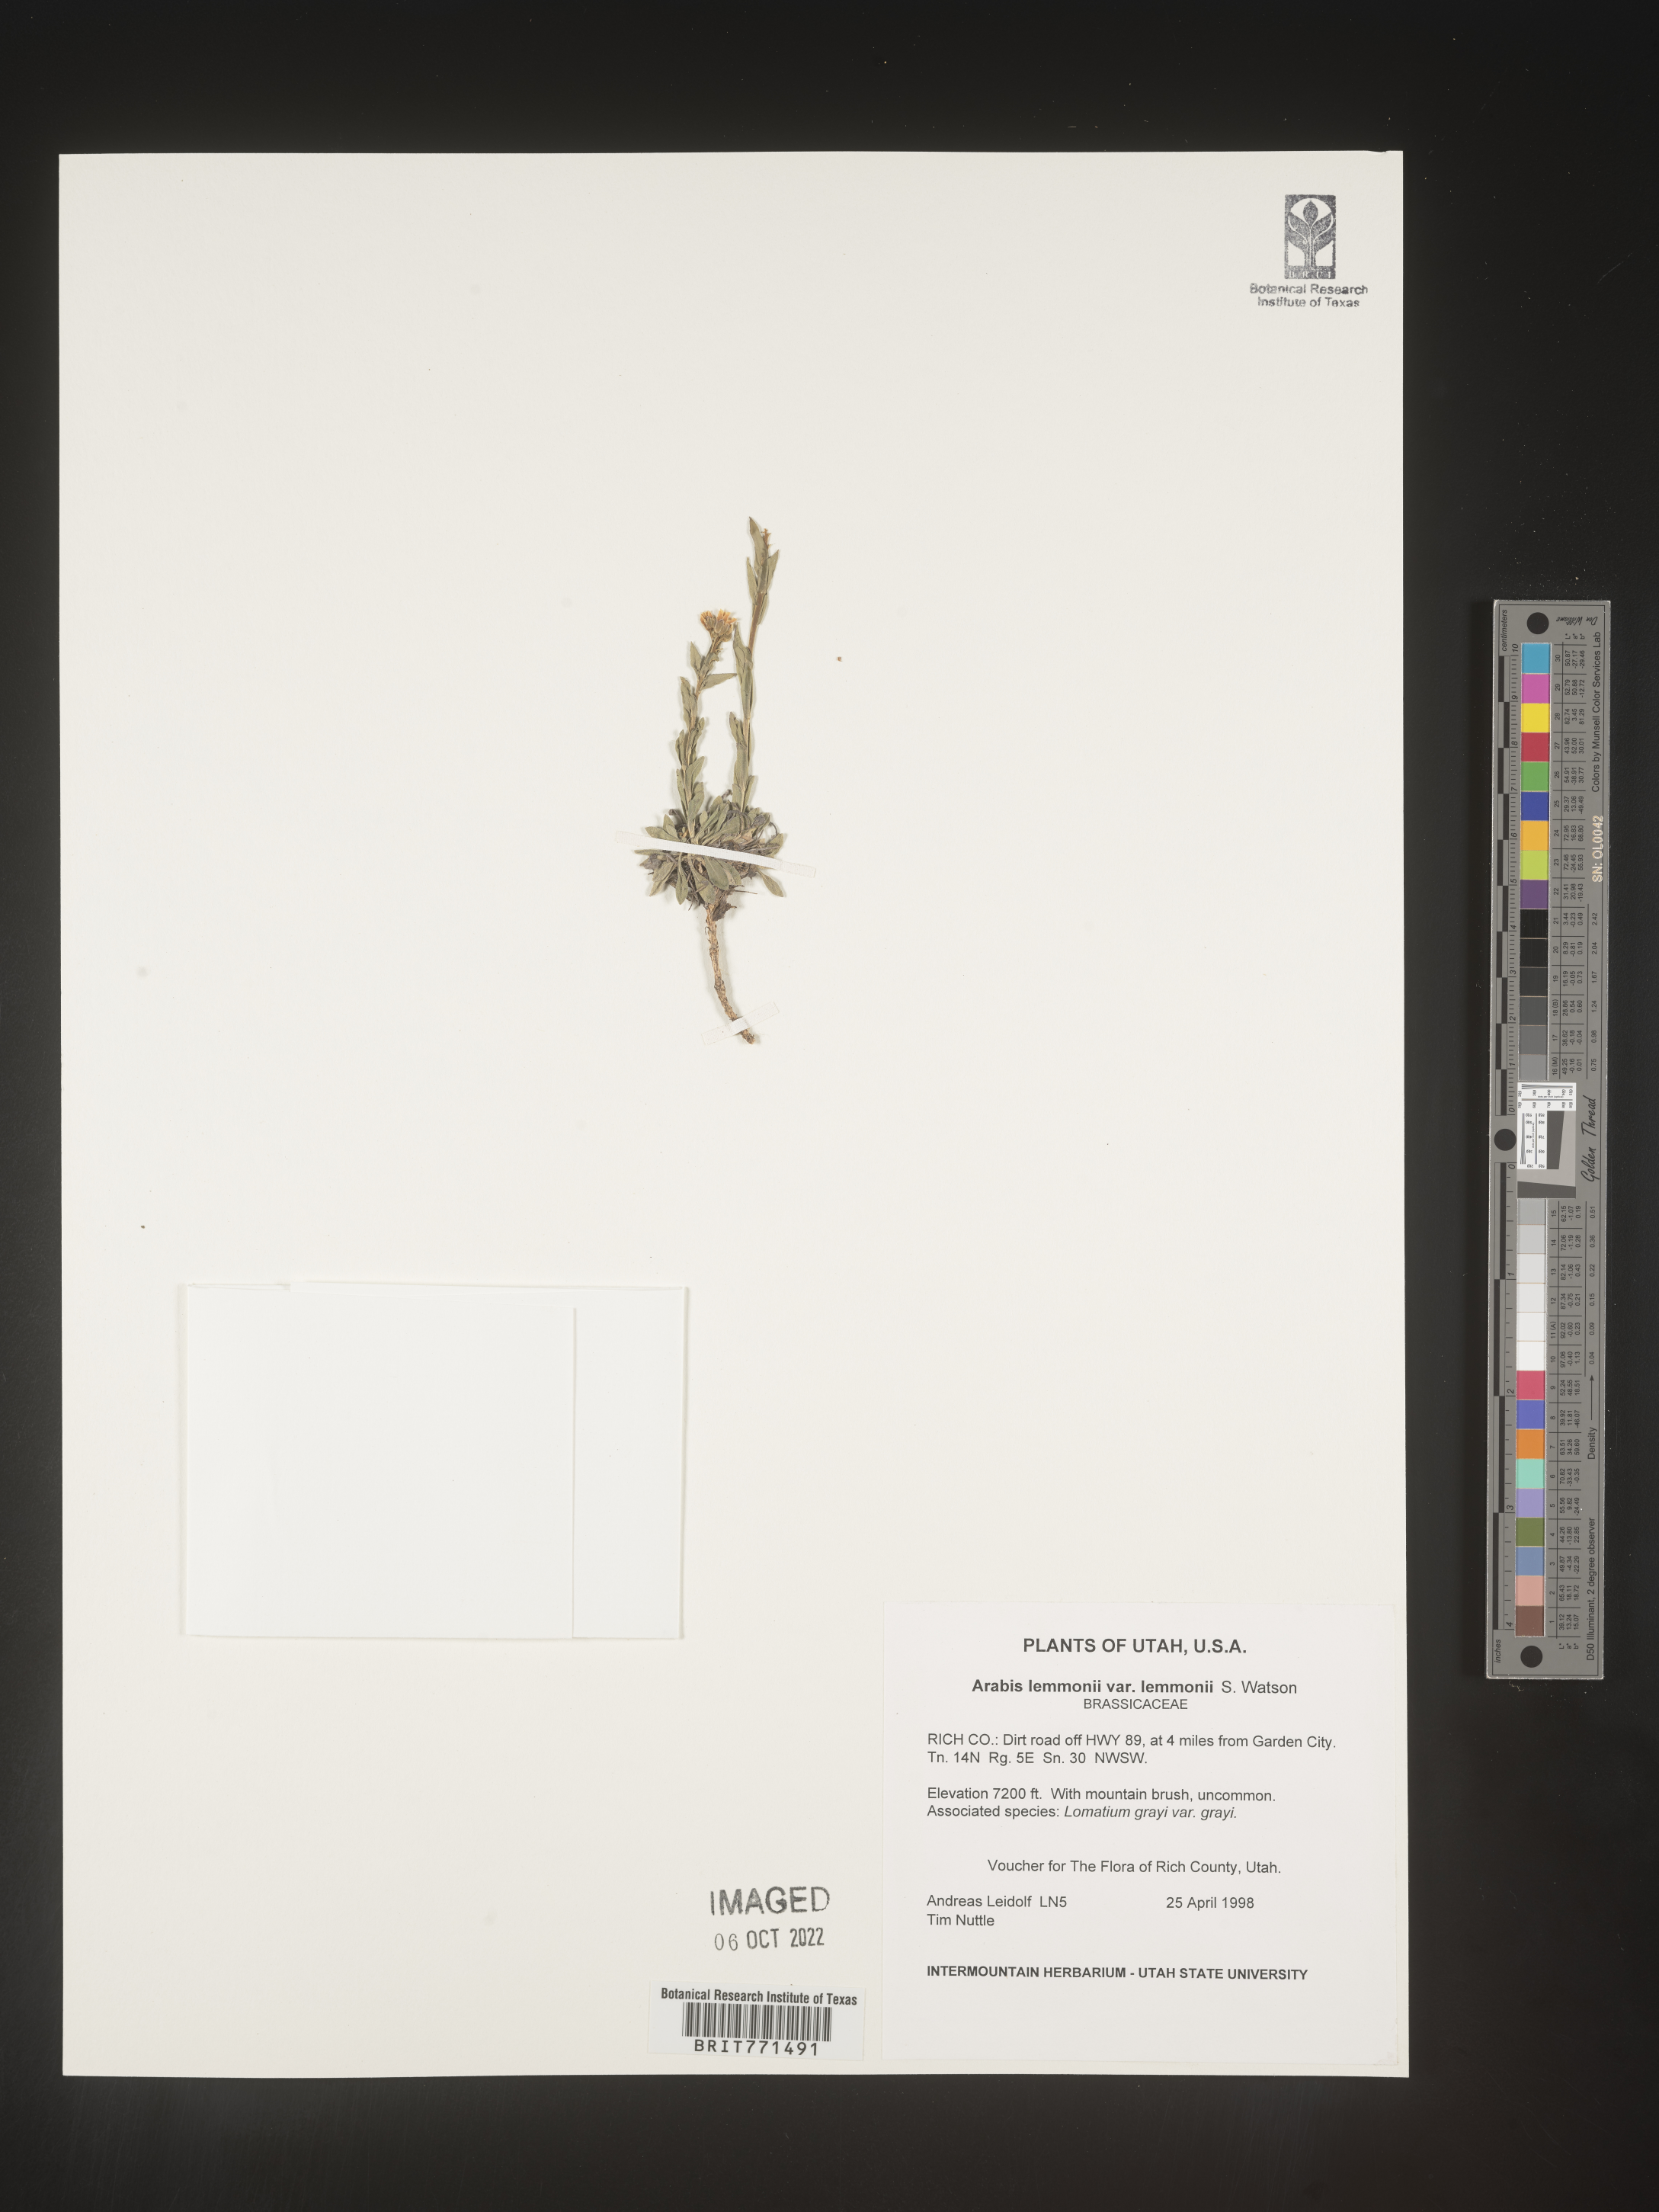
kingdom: Plantae
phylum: Tracheophyta
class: Magnoliopsida
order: Brassicales
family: Brassicaceae
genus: Arabis
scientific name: Arabis
